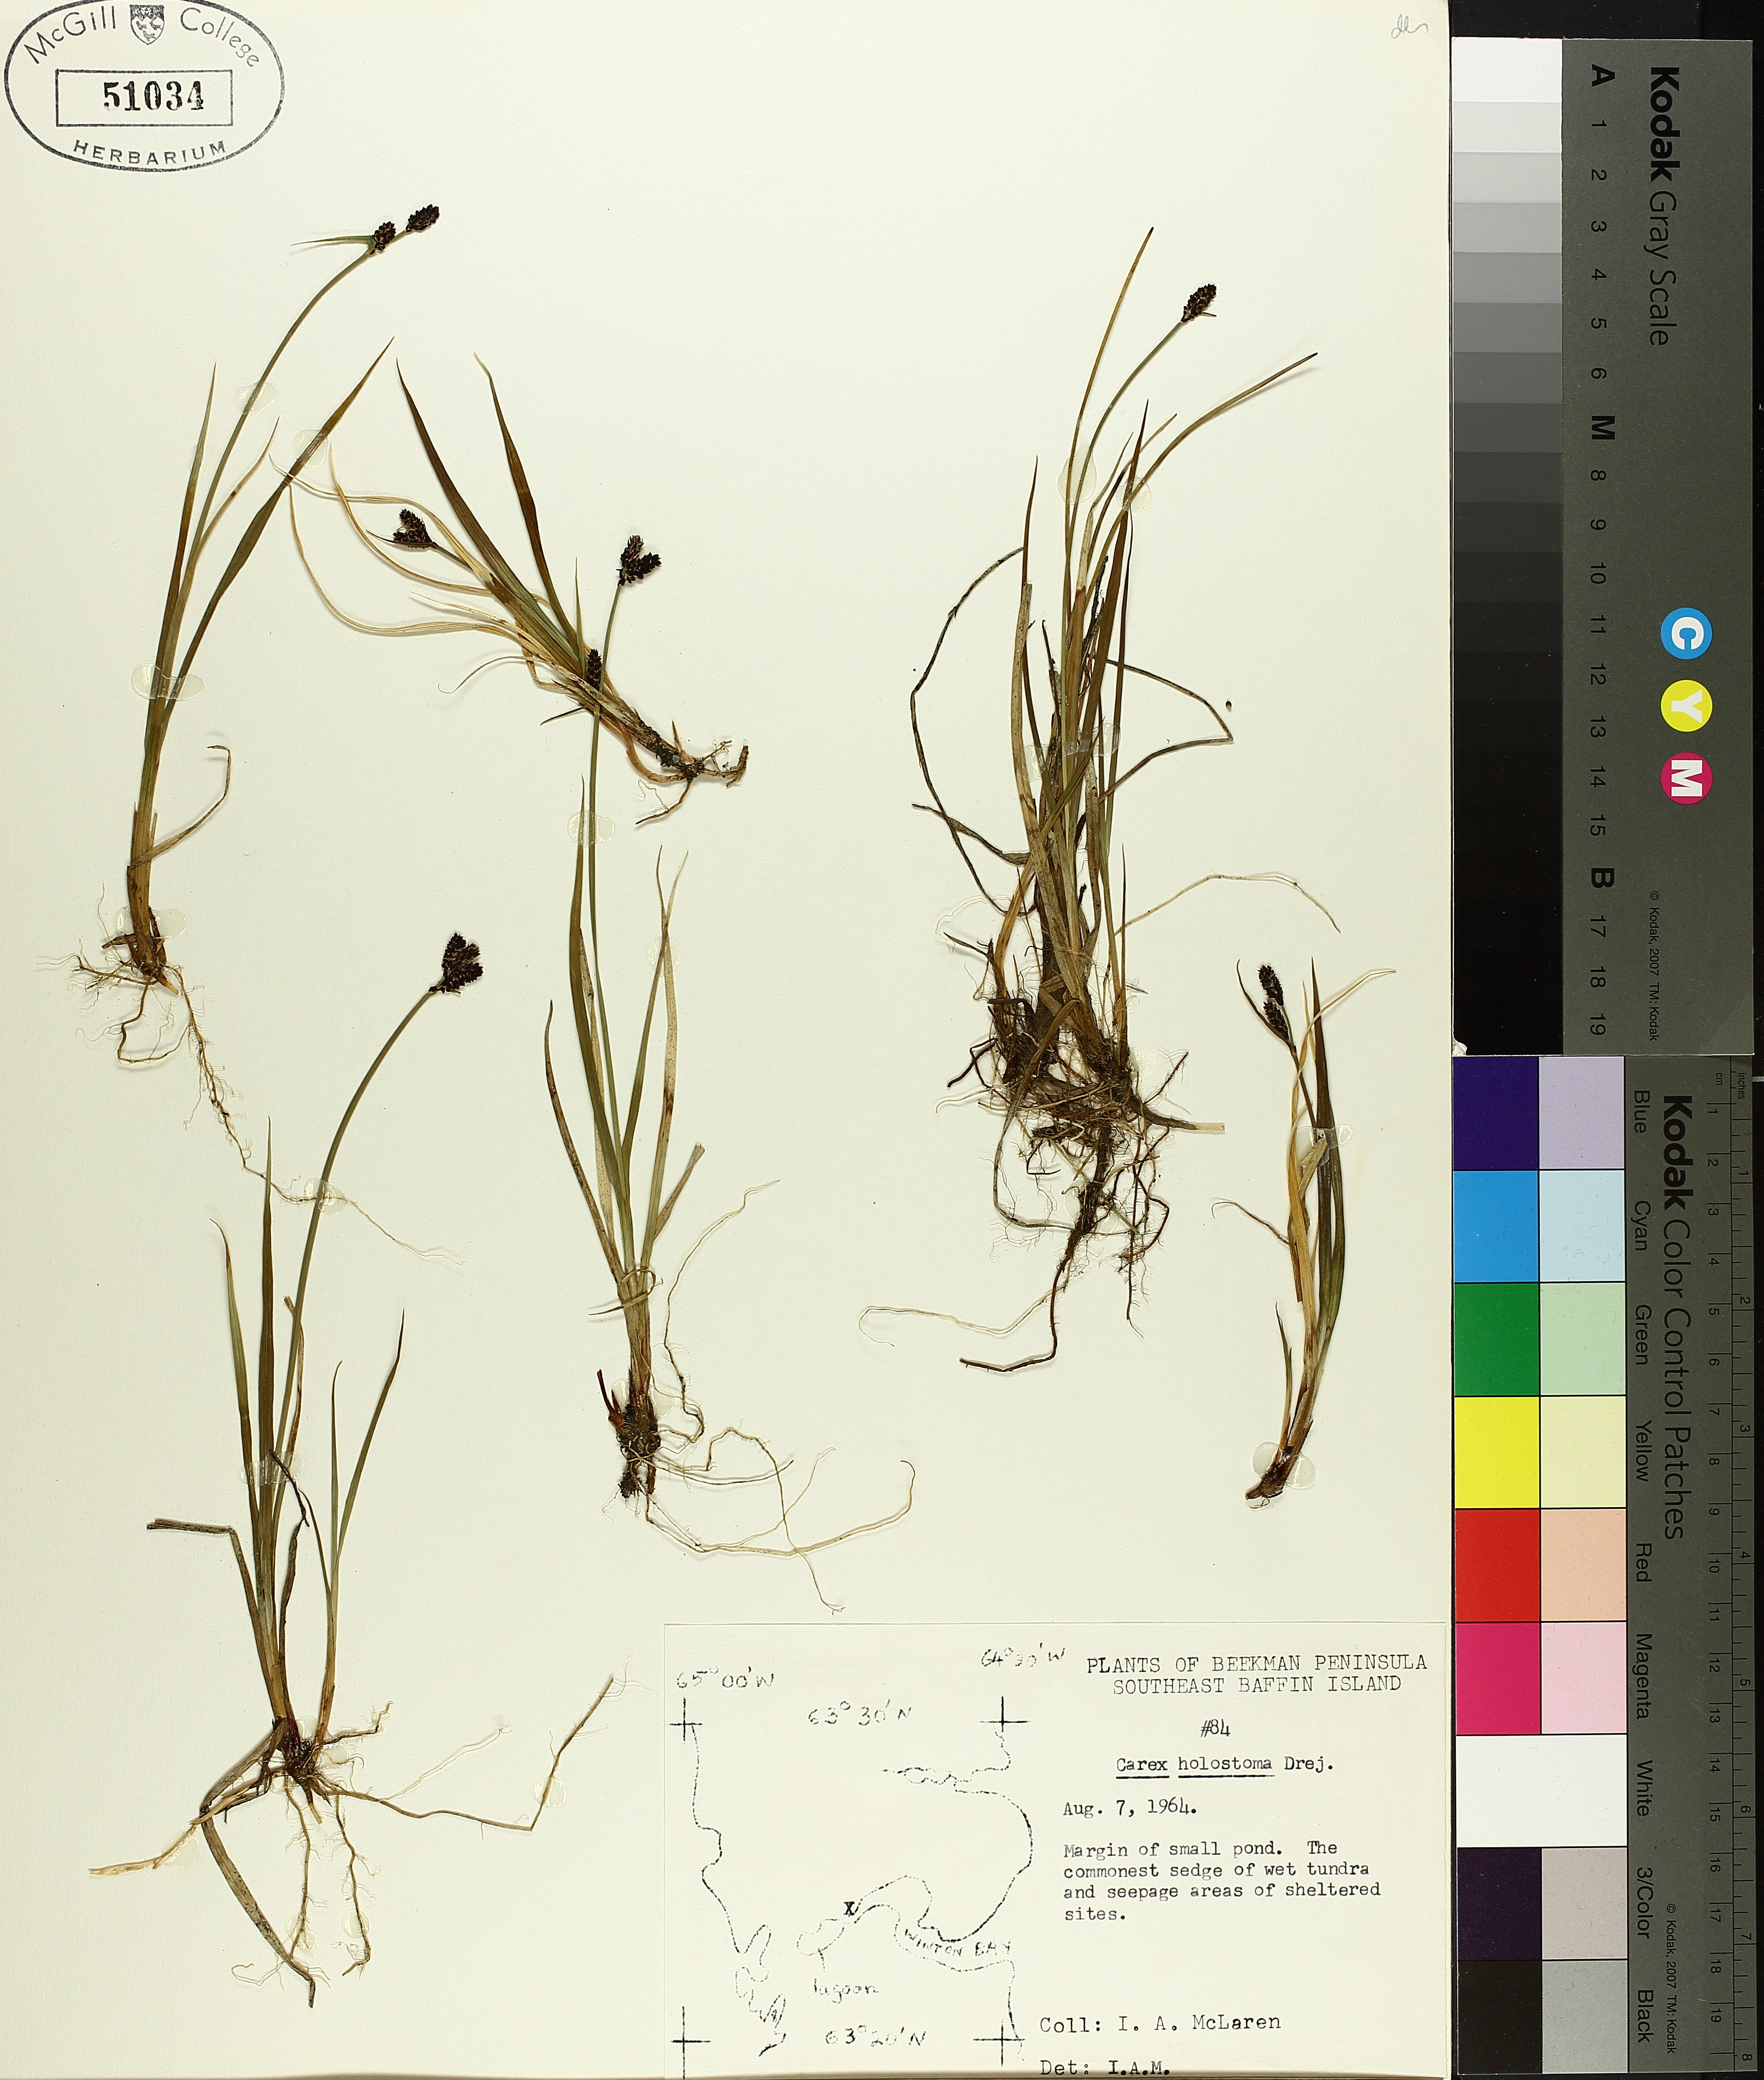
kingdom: Plantae
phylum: Tracheophyta
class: Liliopsida
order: Poales
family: Cyperaceae
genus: Carex
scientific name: Carex holostoma
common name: Arctic marsh sedge
